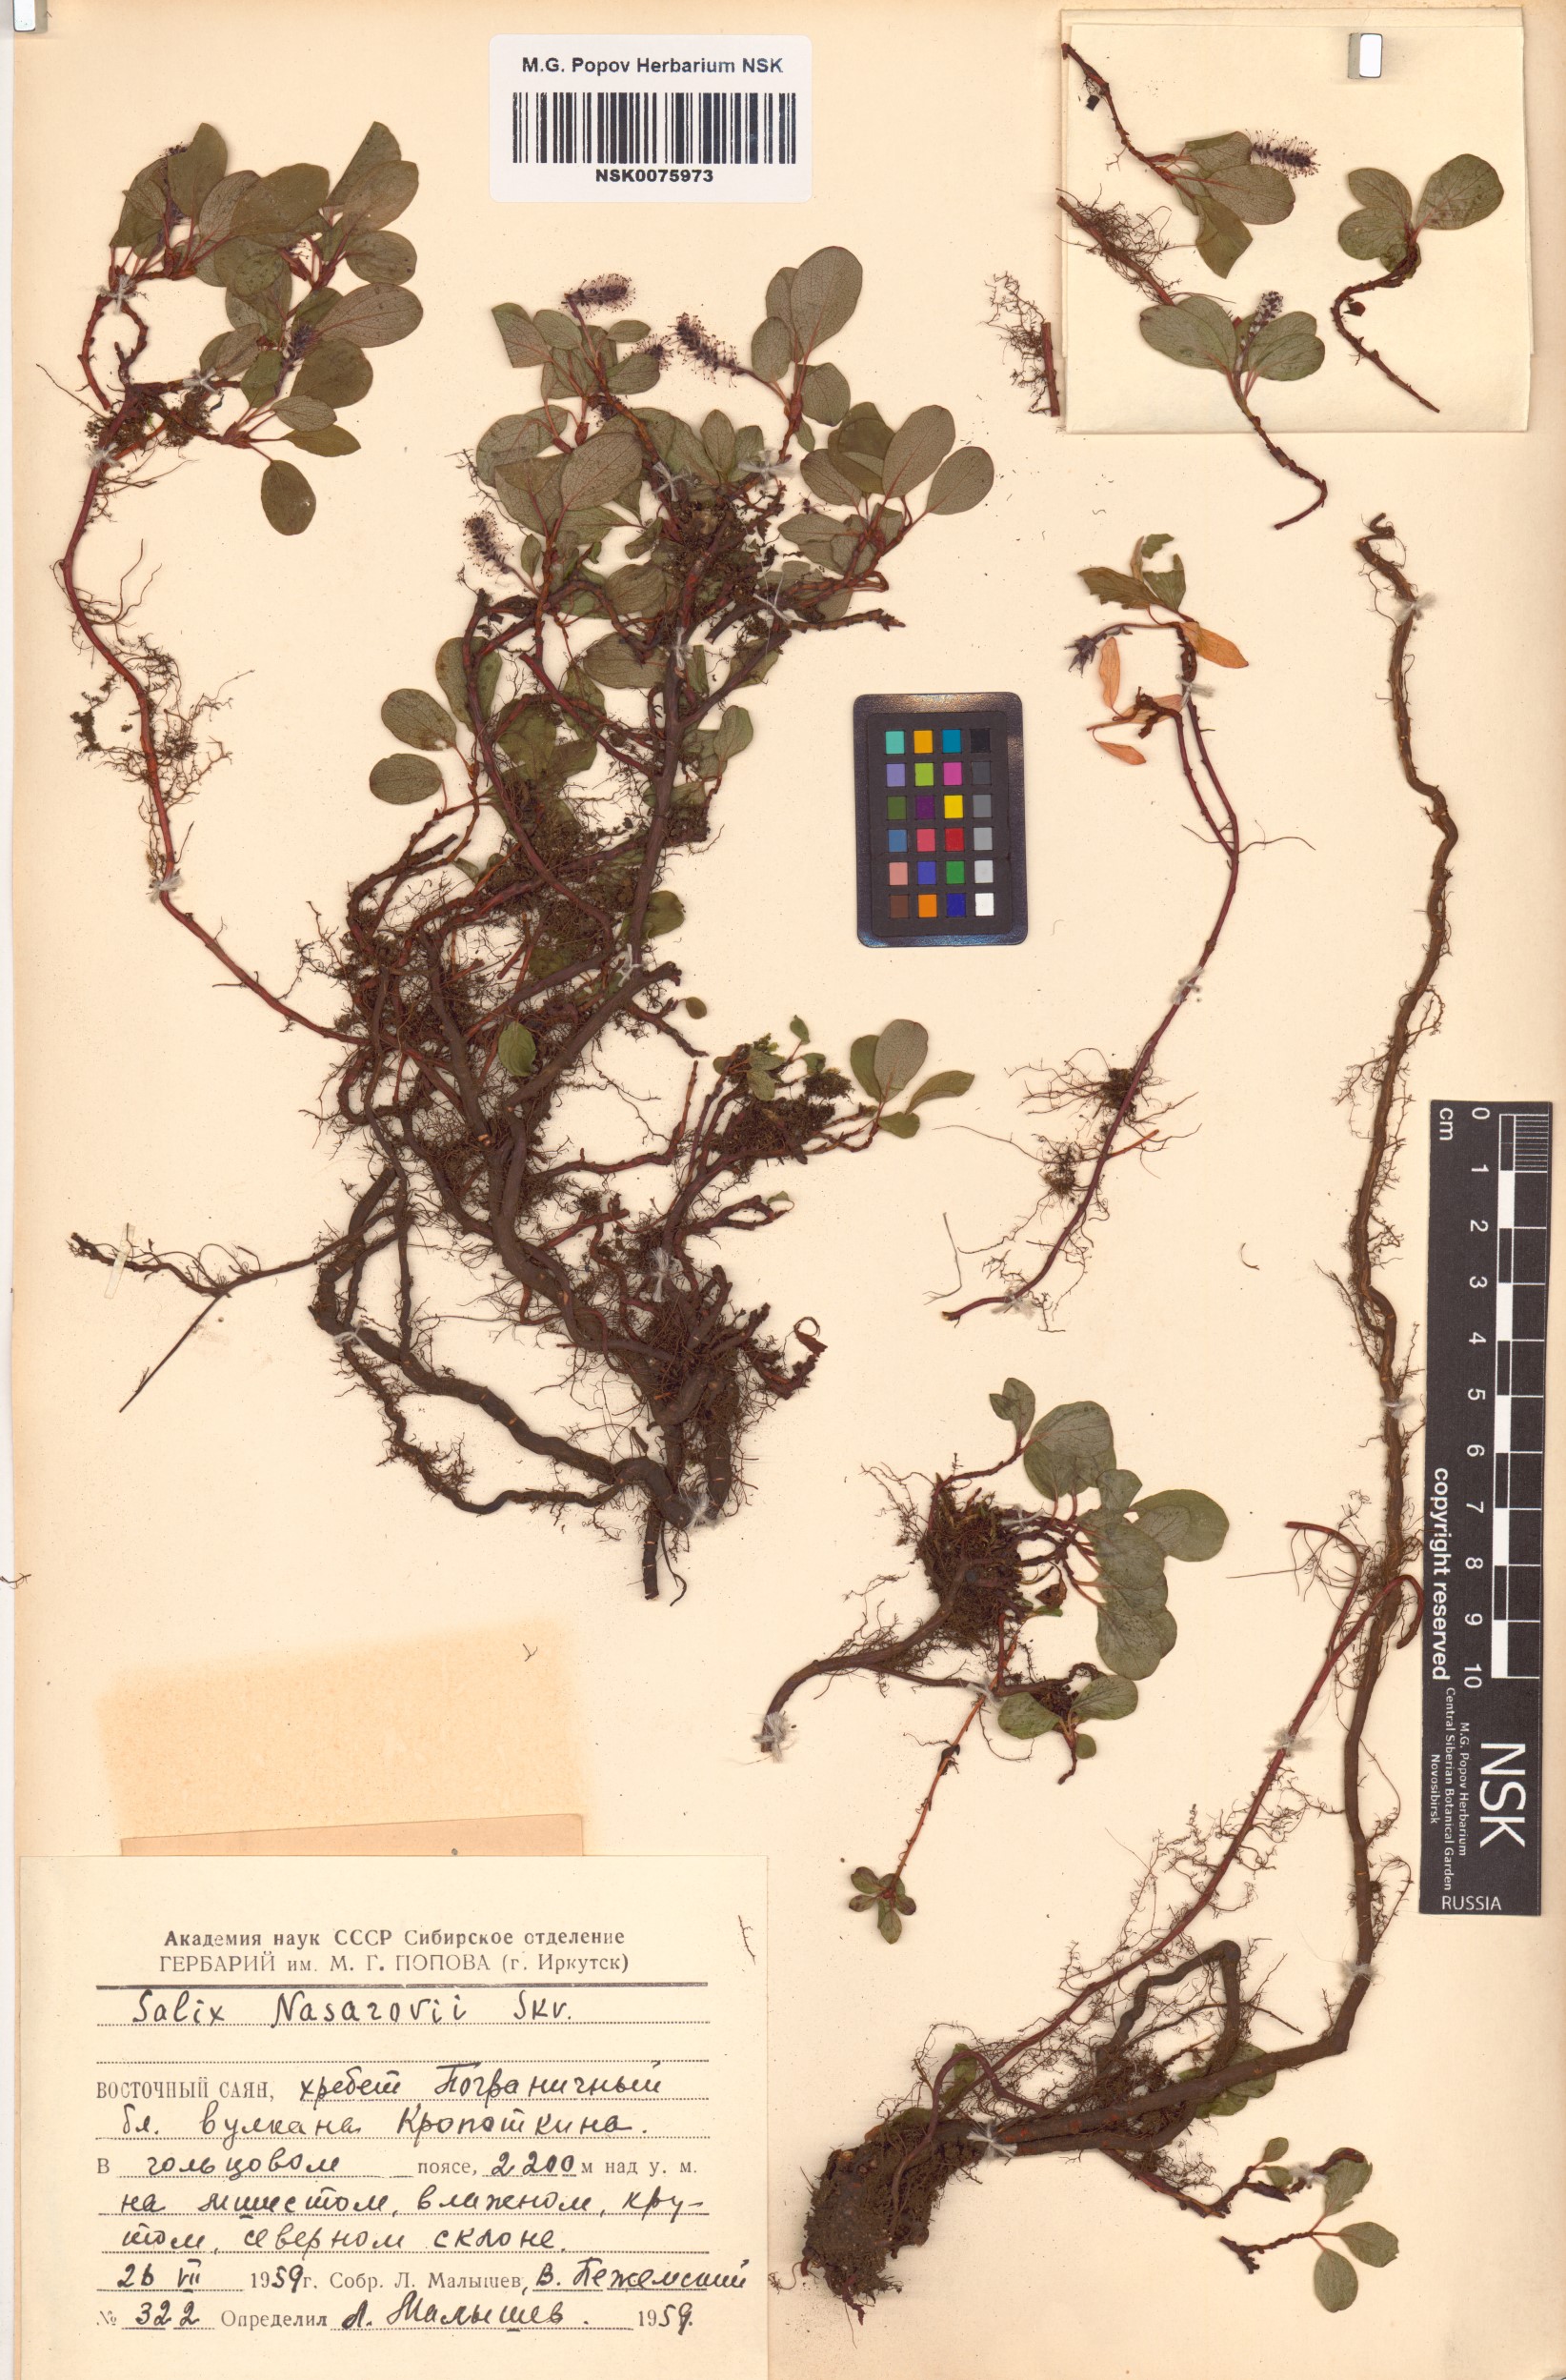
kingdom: Plantae
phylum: Tracheophyta
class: Magnoliopsida
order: Malpighiales
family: Salicaceae
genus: Salix
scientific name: Salix nasarovii
